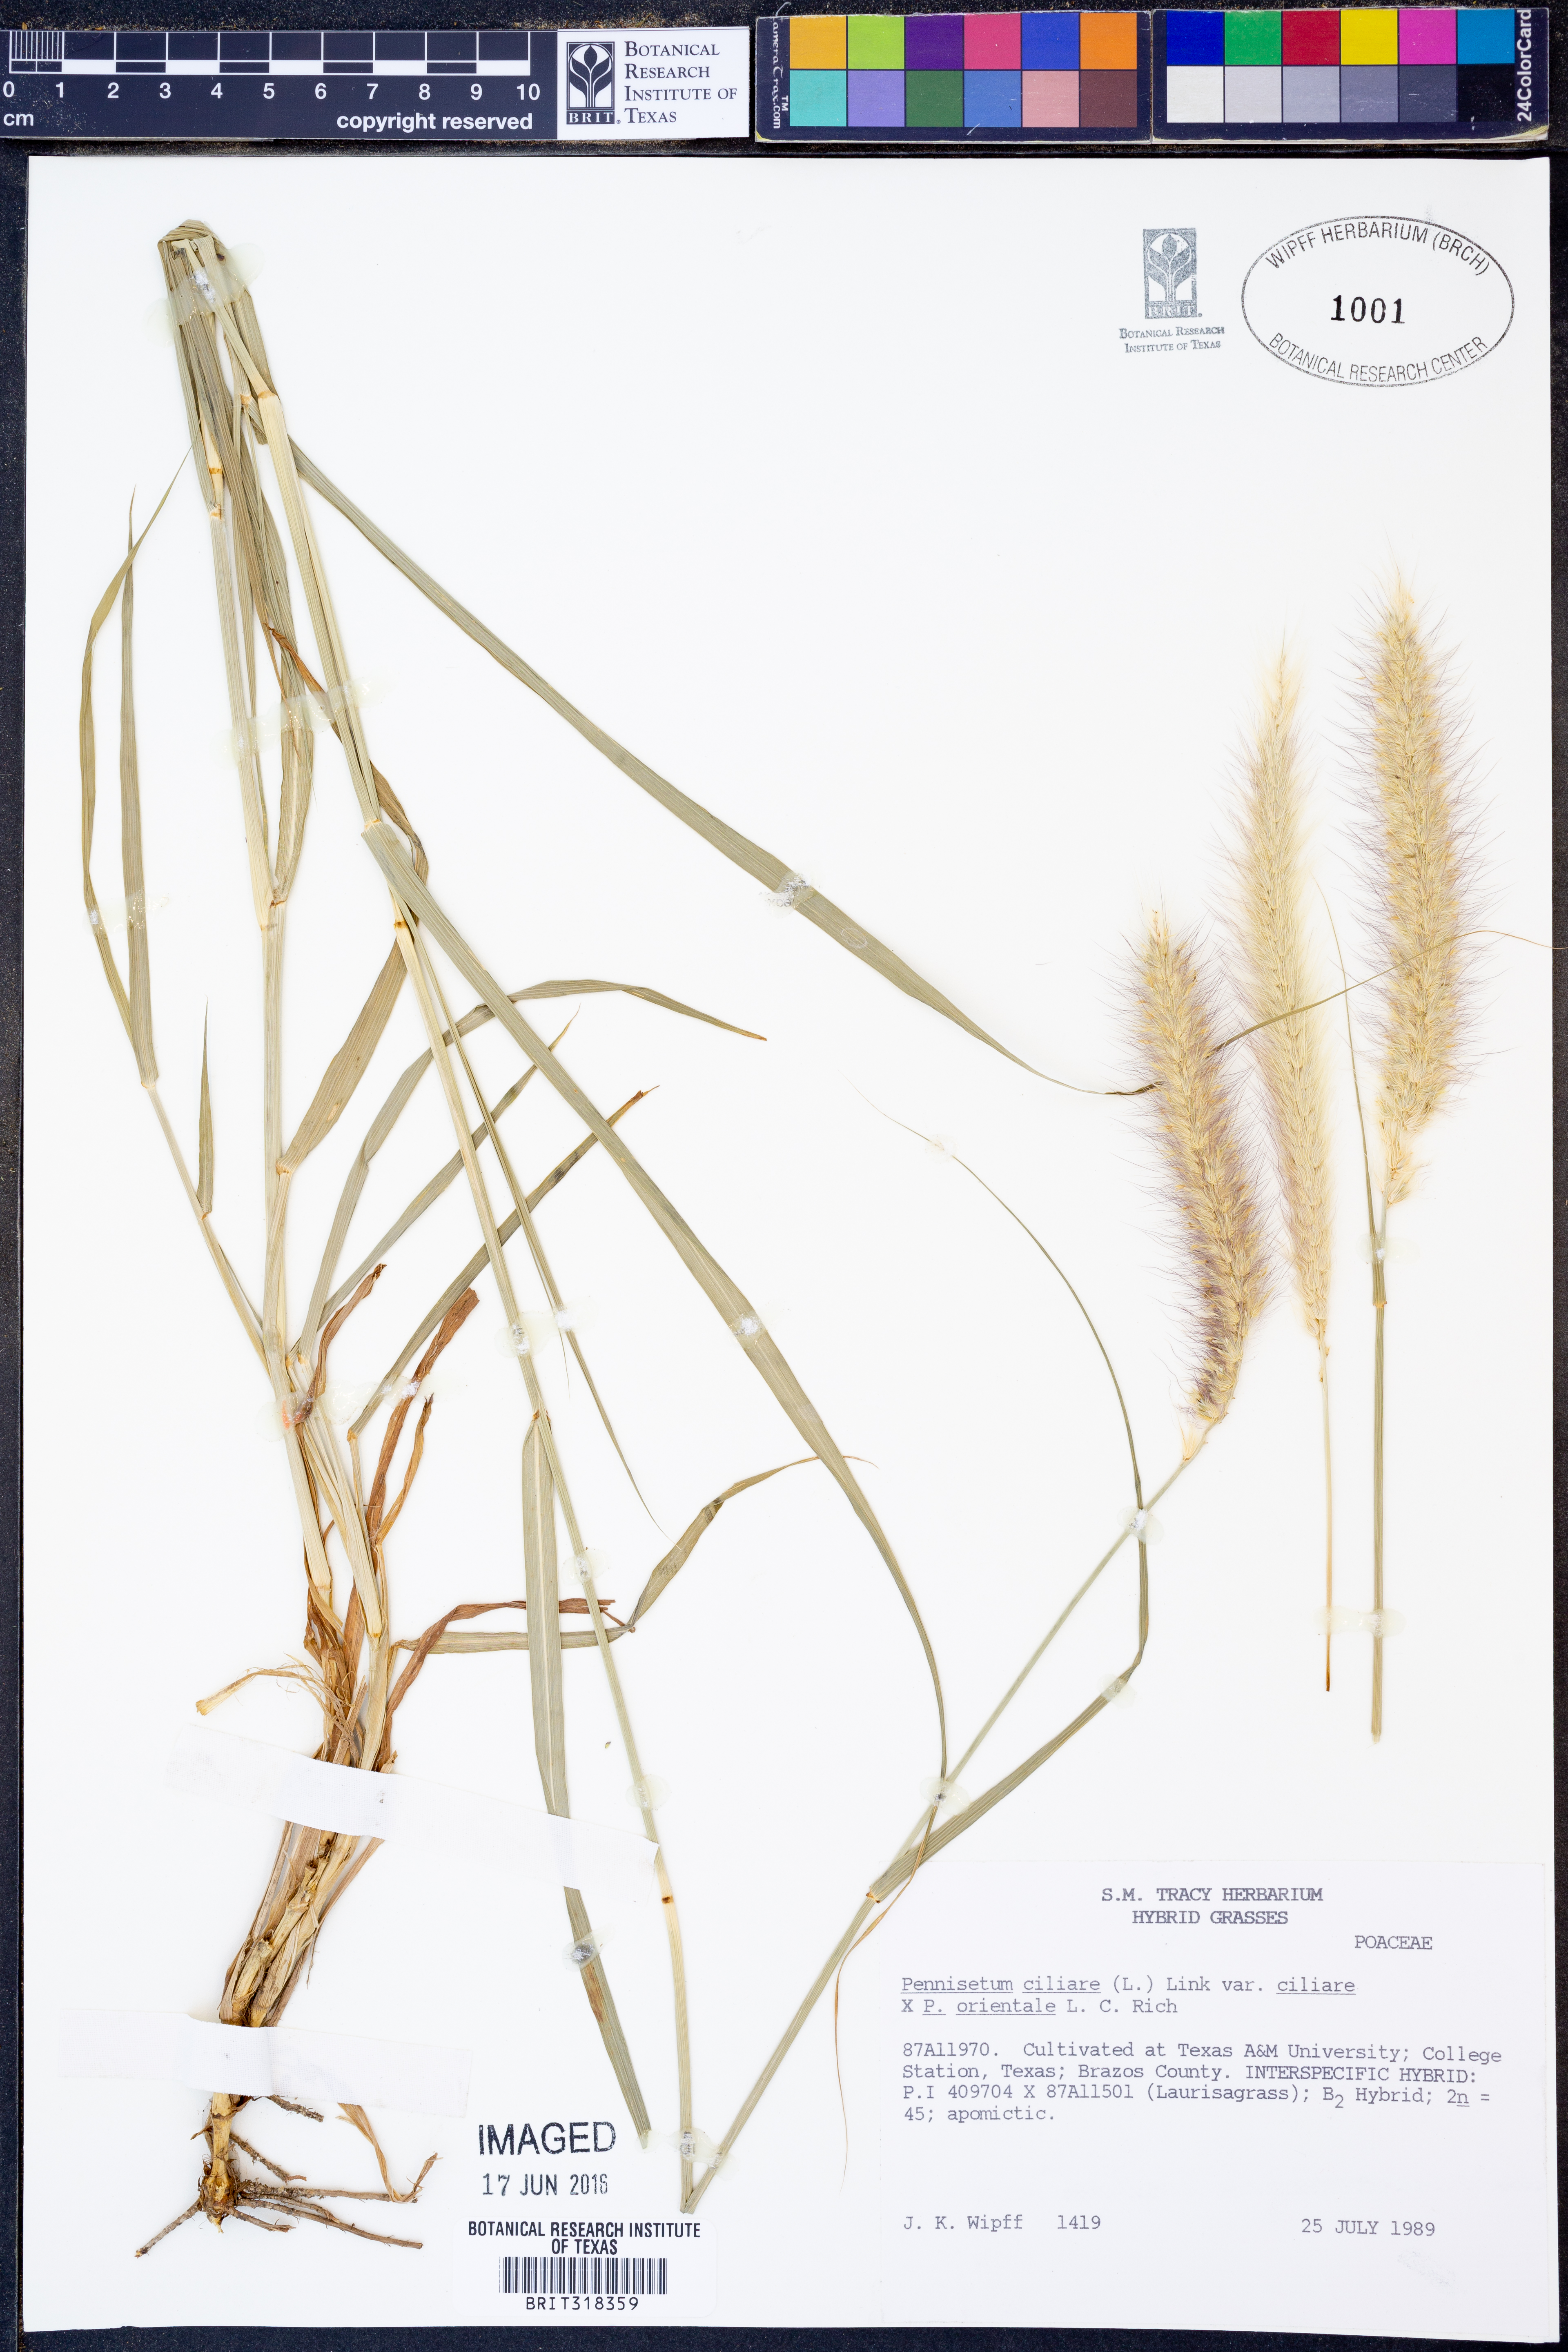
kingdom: Plantae
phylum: Tracheophyta
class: Liliopsida
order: Poales
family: Poaceae
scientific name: Poaceae
